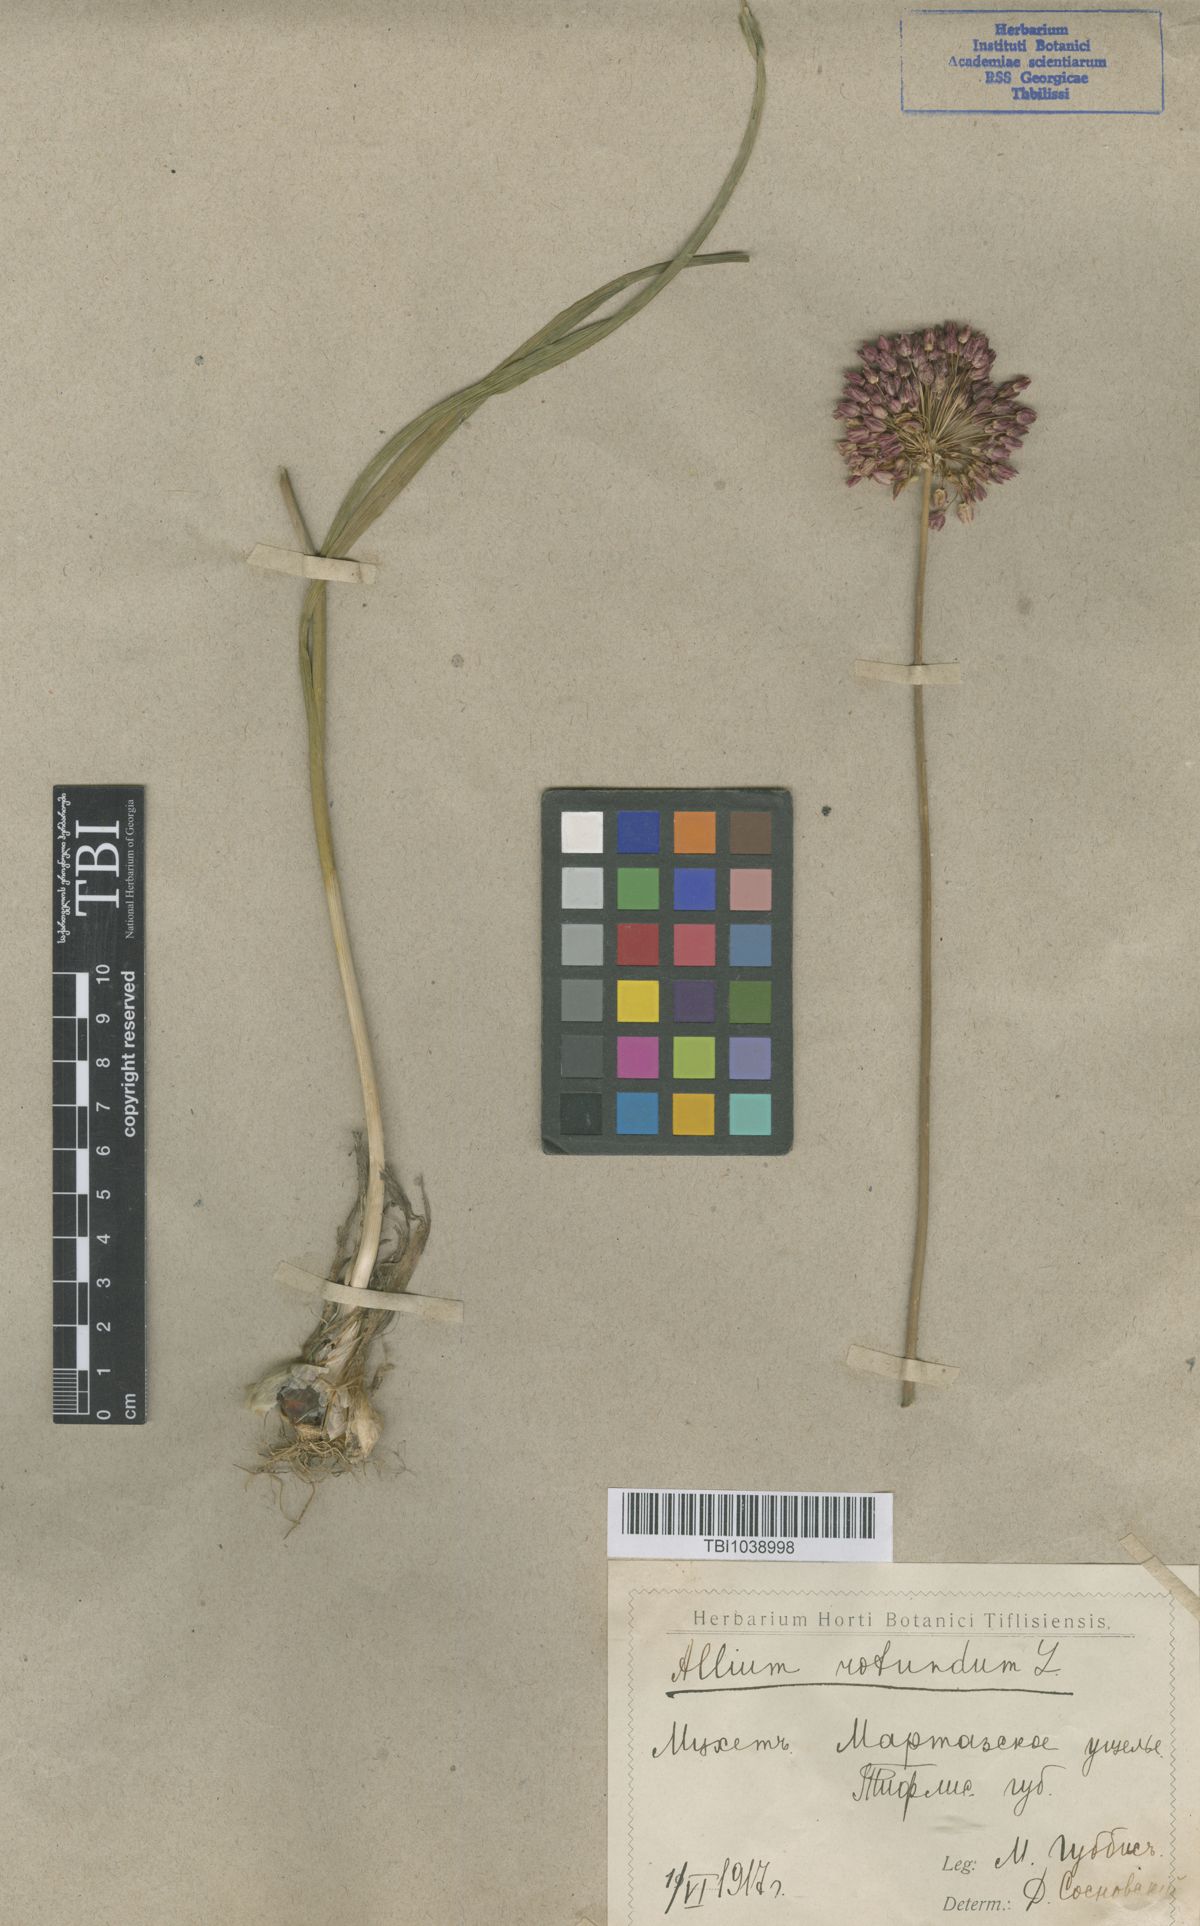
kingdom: Plantae
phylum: Tracheophyta
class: Liliopsida
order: Asparagales
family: Amaryllidaceae
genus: Allium
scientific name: Allium rotundum
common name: Sand leek
